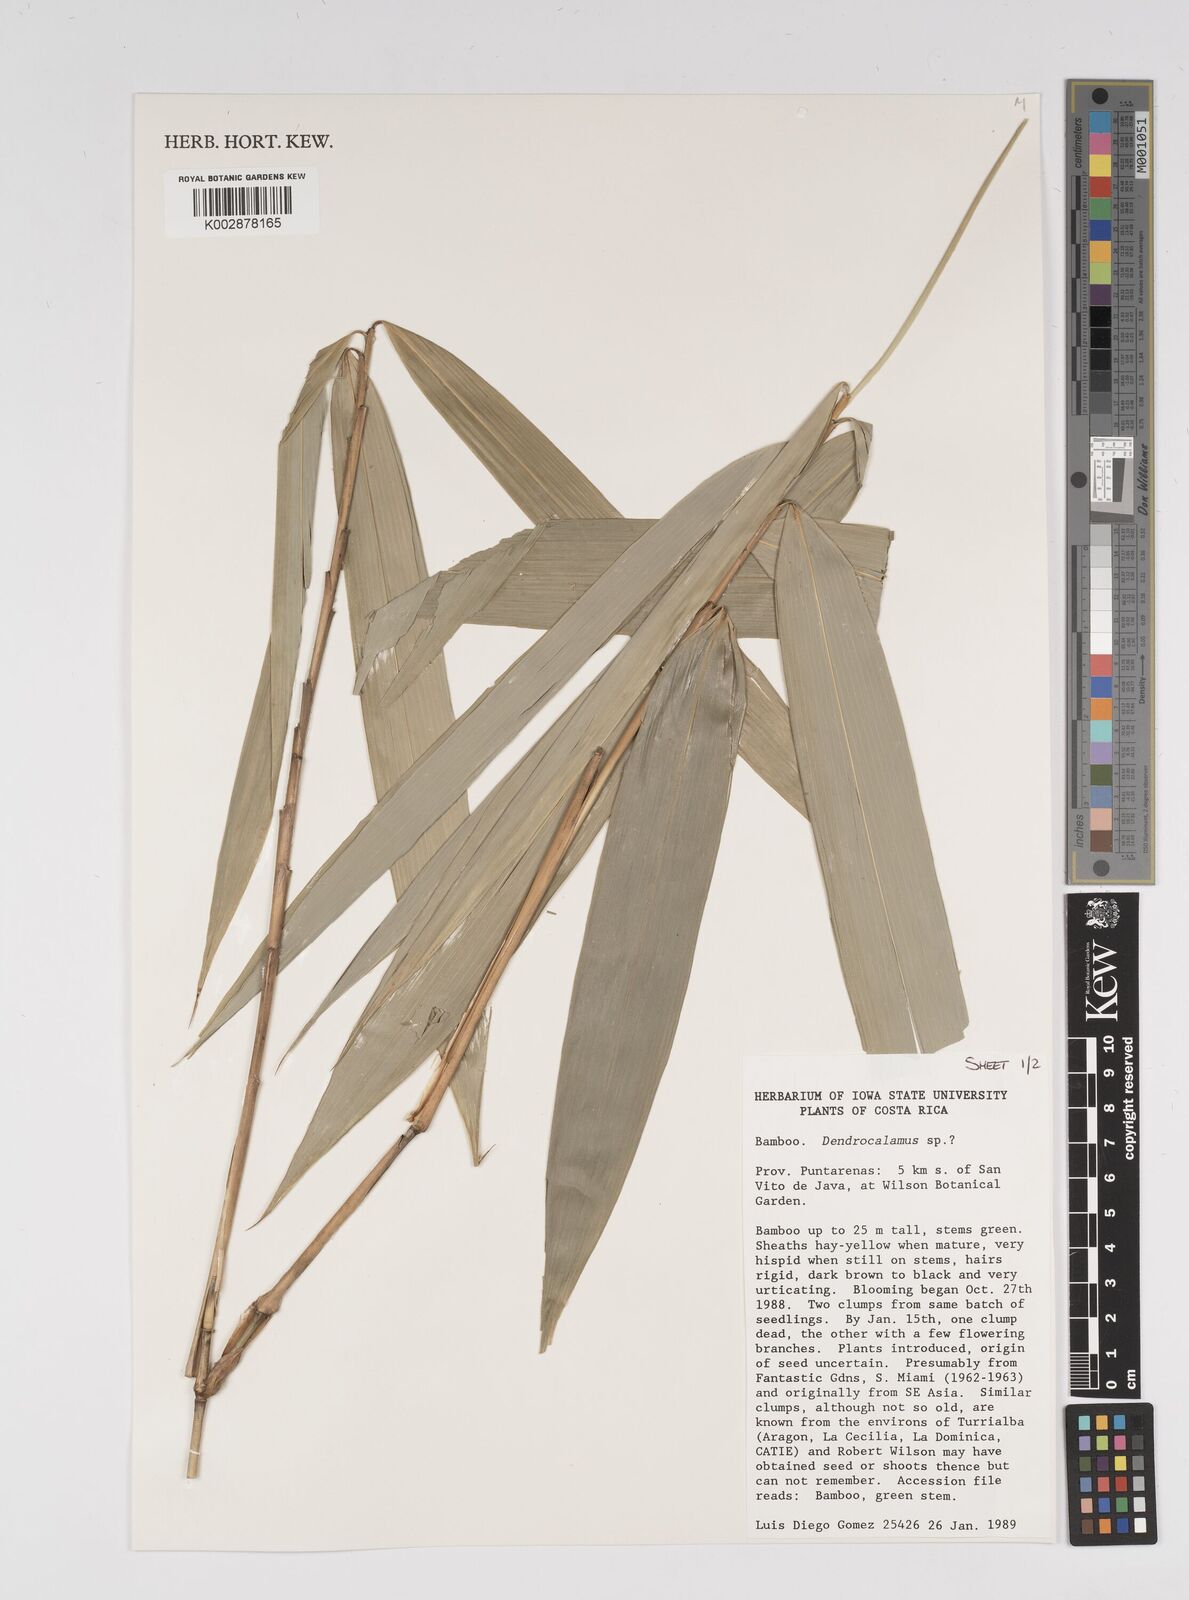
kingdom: Plantae
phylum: Tracheophyta
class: Liliopsida
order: Poales
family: Poaceae
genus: Bambusa
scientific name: Bambusa
